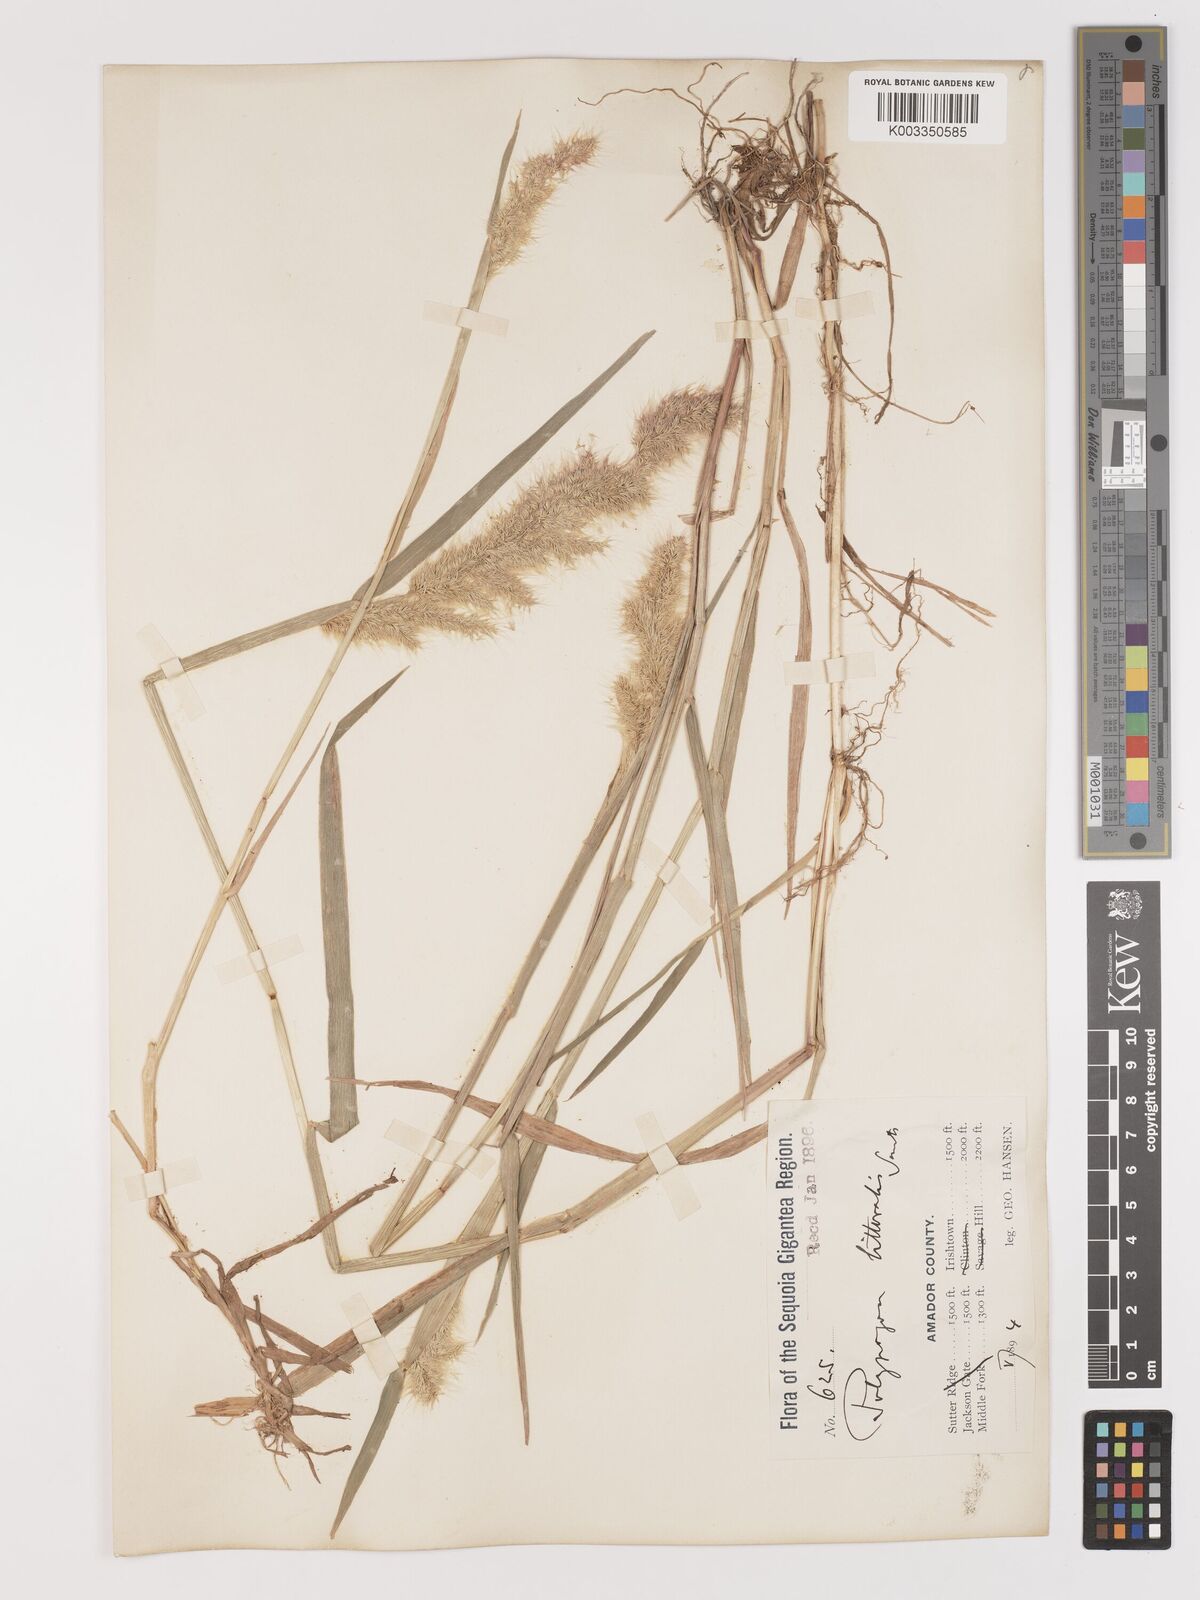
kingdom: Plantae
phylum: Tracheophyta
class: Liliopsida
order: Poales
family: Poaceae
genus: Agropogon
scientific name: Agropogon lutosus
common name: Coast agropogon
